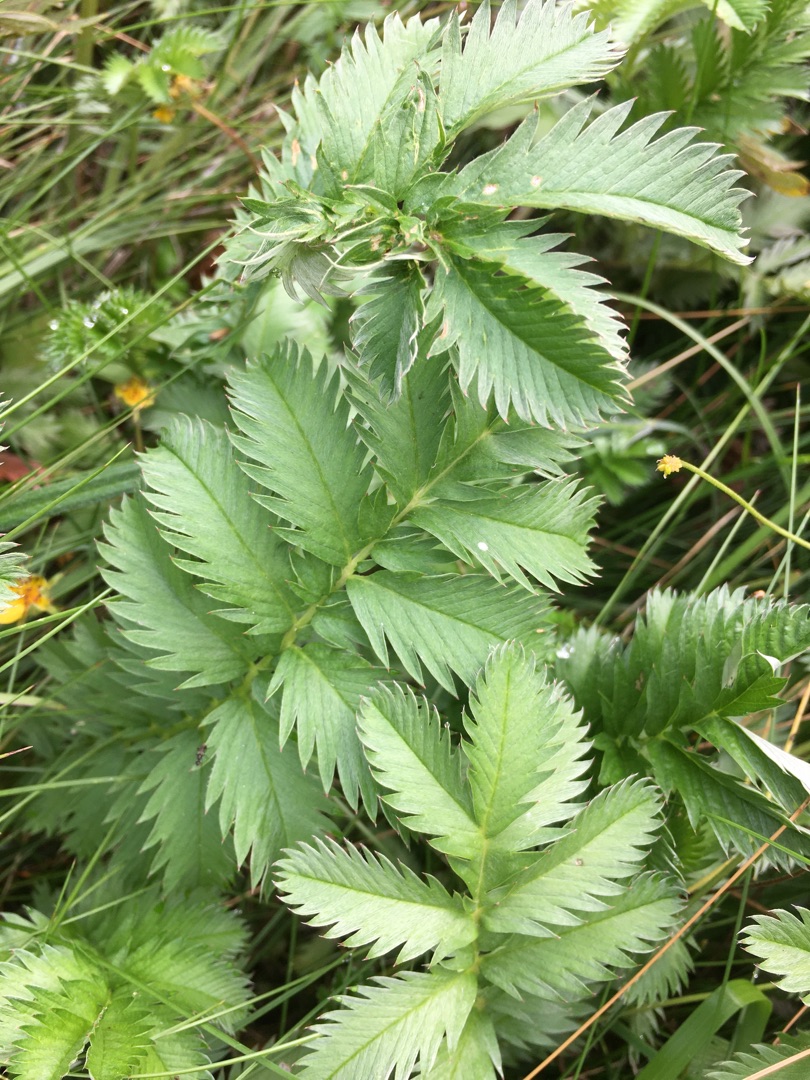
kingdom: Plantae
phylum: Tracheophyta
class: Magnoliopsida
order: Rosales
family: Rosaceae
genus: Argentina
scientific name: Argentina anserina
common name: Gåsepotentil
